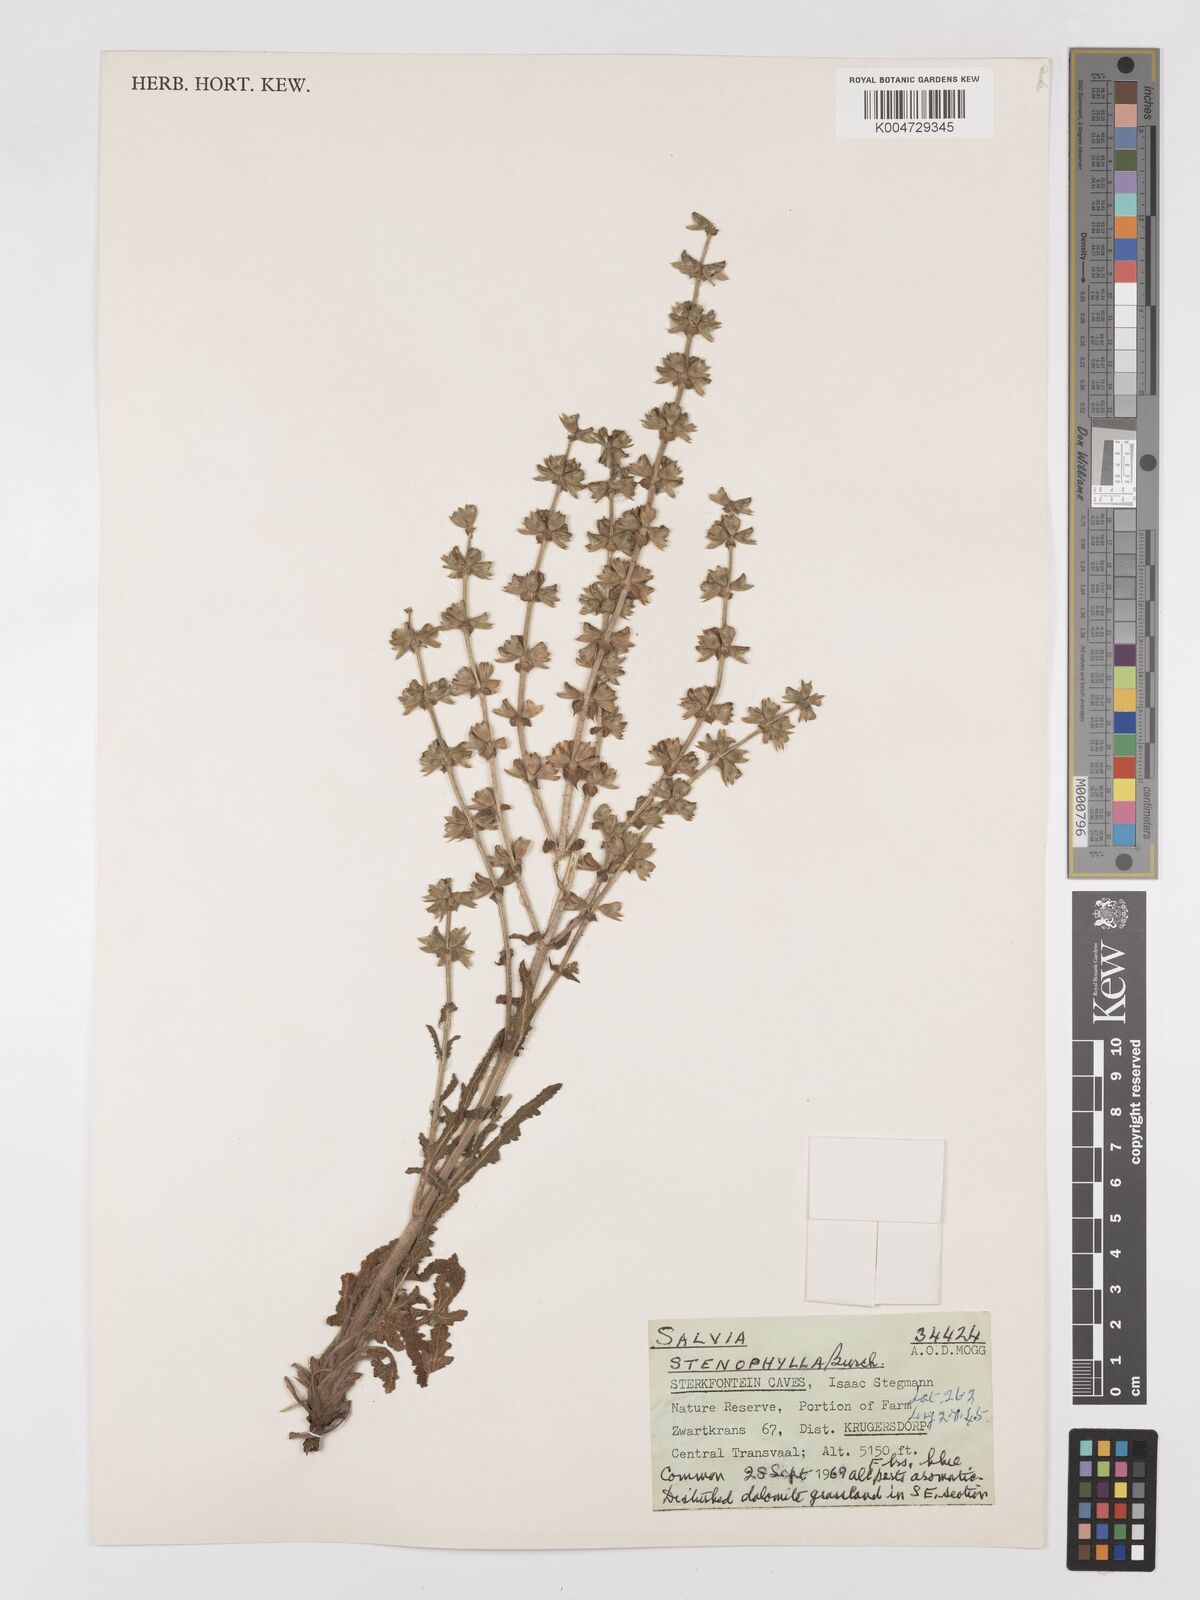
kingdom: Plantae
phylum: Tracheophyta
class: Magnoliopsida
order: Lamiales
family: Lamiaceae
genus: Salvia
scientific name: Salvia stenophylla
